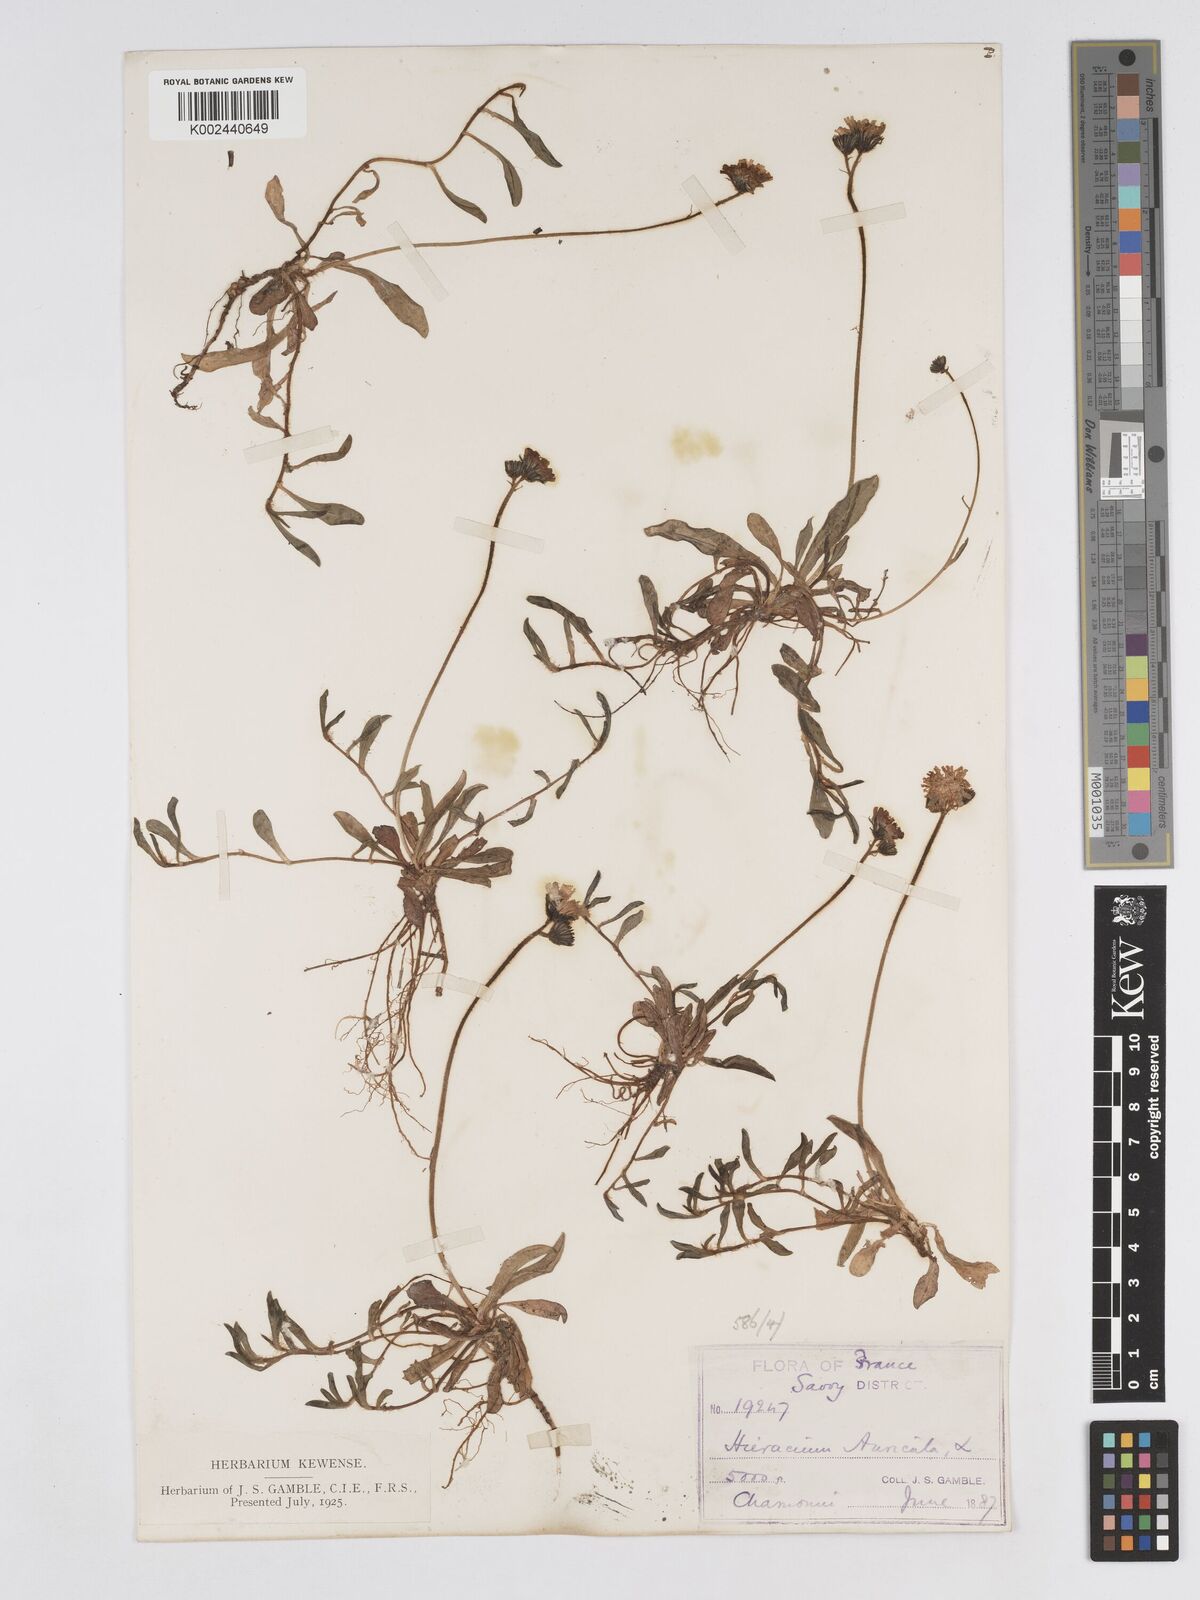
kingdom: Plantae
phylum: Tracheophyta
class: Magnoliopsida
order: Asterales
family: Asteraceae
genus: Pilosella
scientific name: Pilosella floribunda
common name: Glaucous hawkweed
